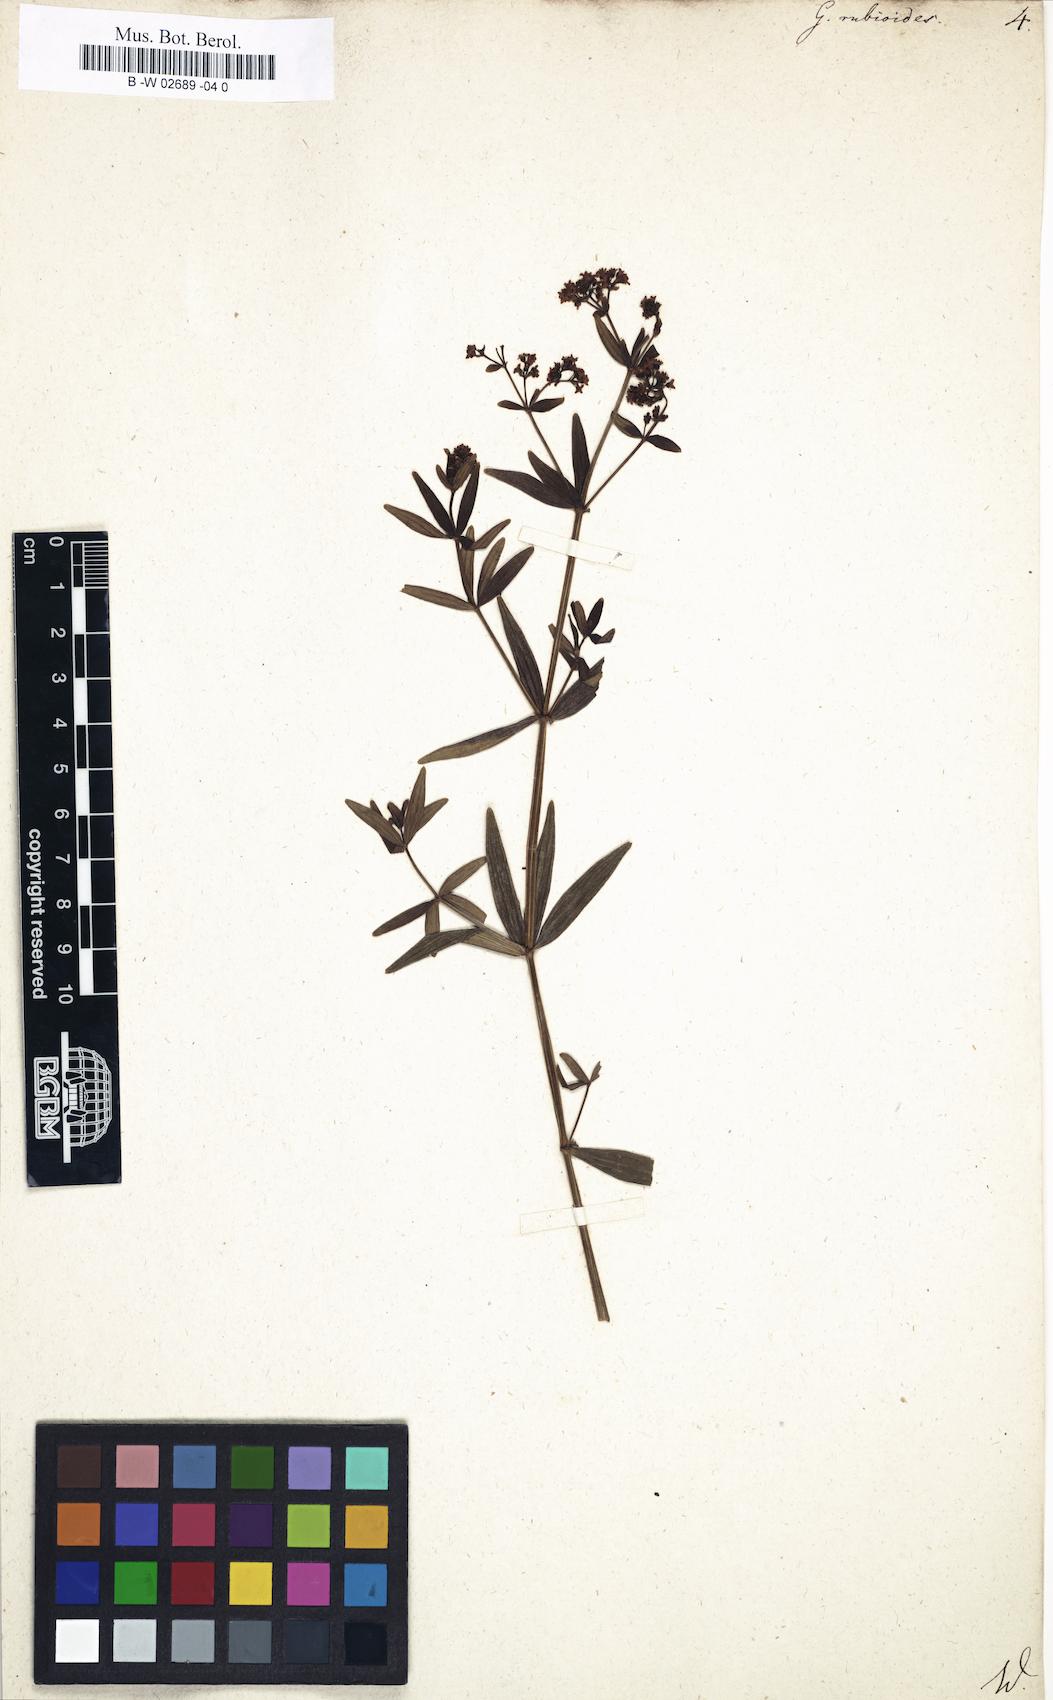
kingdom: Plantae
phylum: Tracheophyta
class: Magnoliopsida
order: Gentianales
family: Rubiaceae
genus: Galium
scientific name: Galium rubioides
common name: European bedstraw
